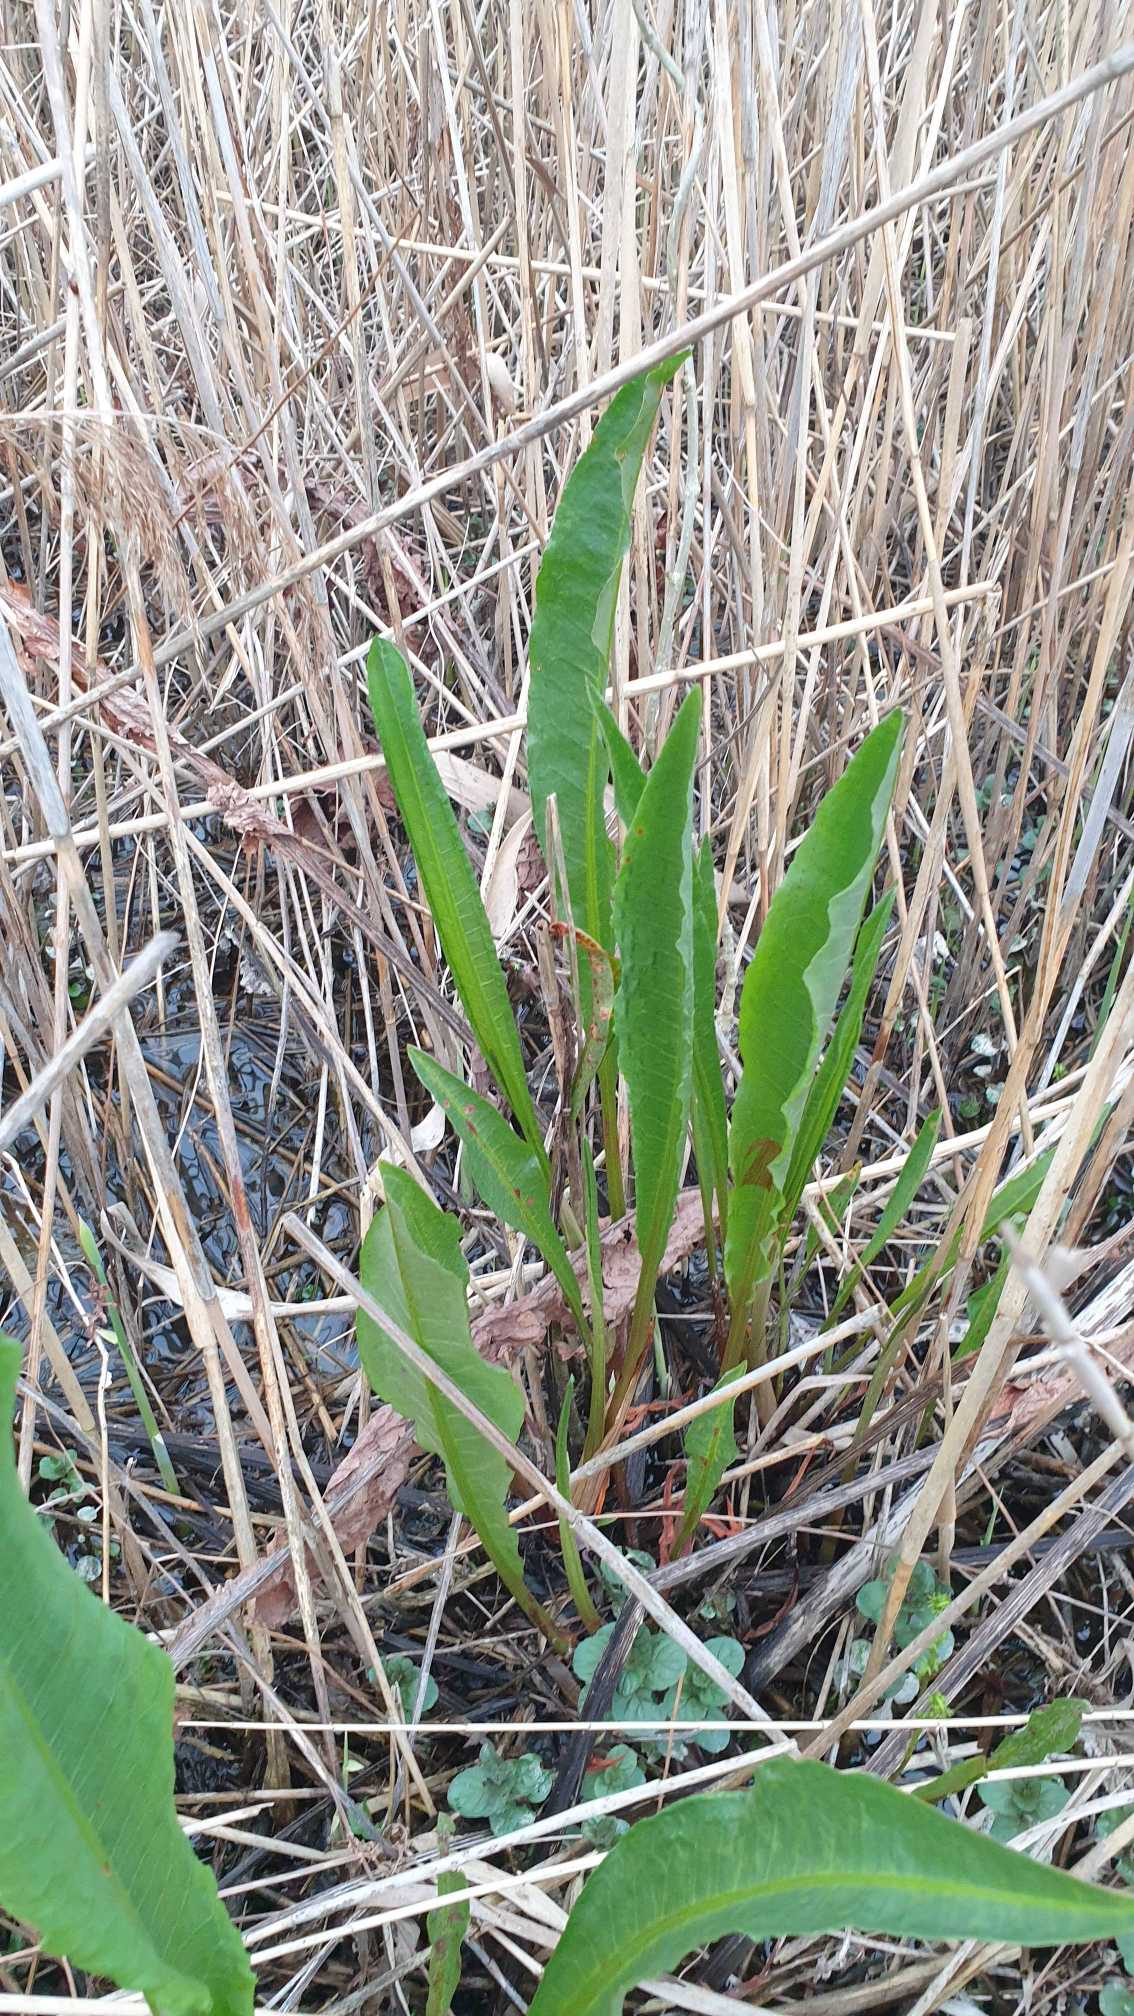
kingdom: Plantae
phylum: Tracheophyta
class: Magnoliopsida
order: Caryophyllales
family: Polygonaceae
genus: Rumex
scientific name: Rumex hydrolapathum
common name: Vand-skræppe
